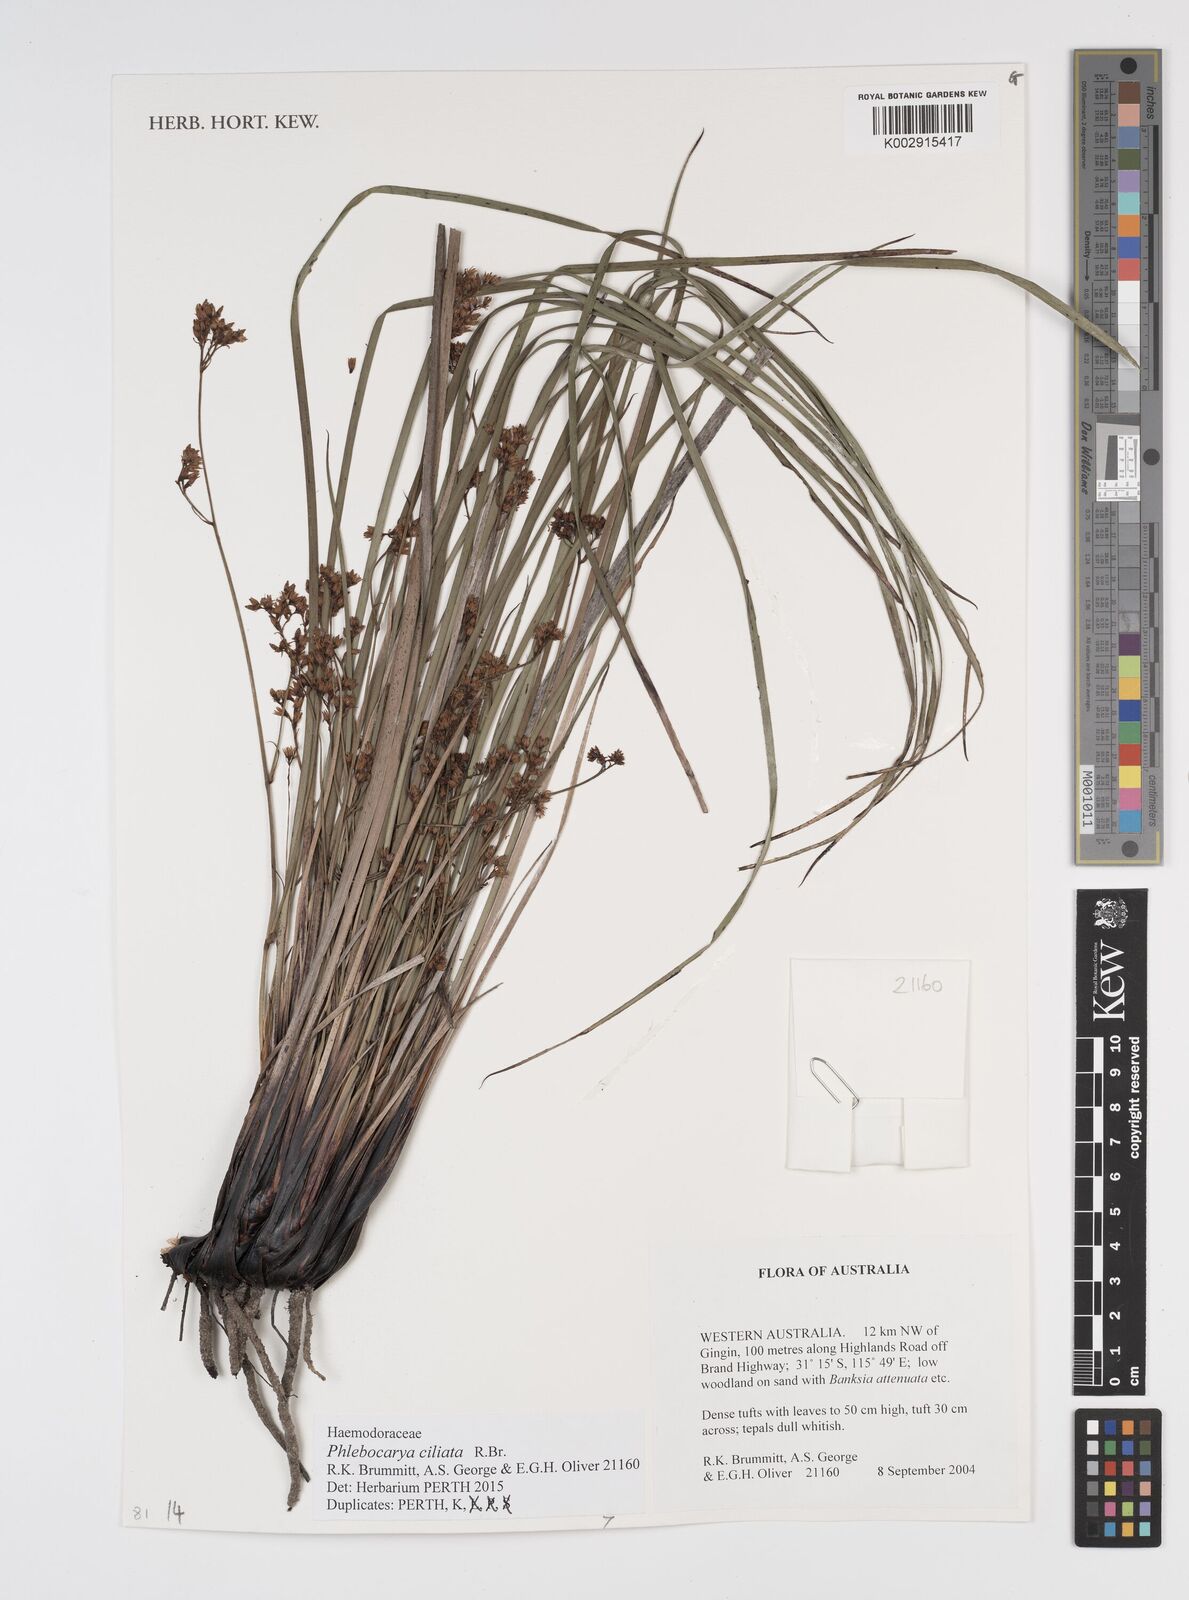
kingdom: Plantae
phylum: Tracheophyta
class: Liliopsida
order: Commelinales
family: Haemodoraceae
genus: Phlebocarya
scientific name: Phlebocarya ciliata
